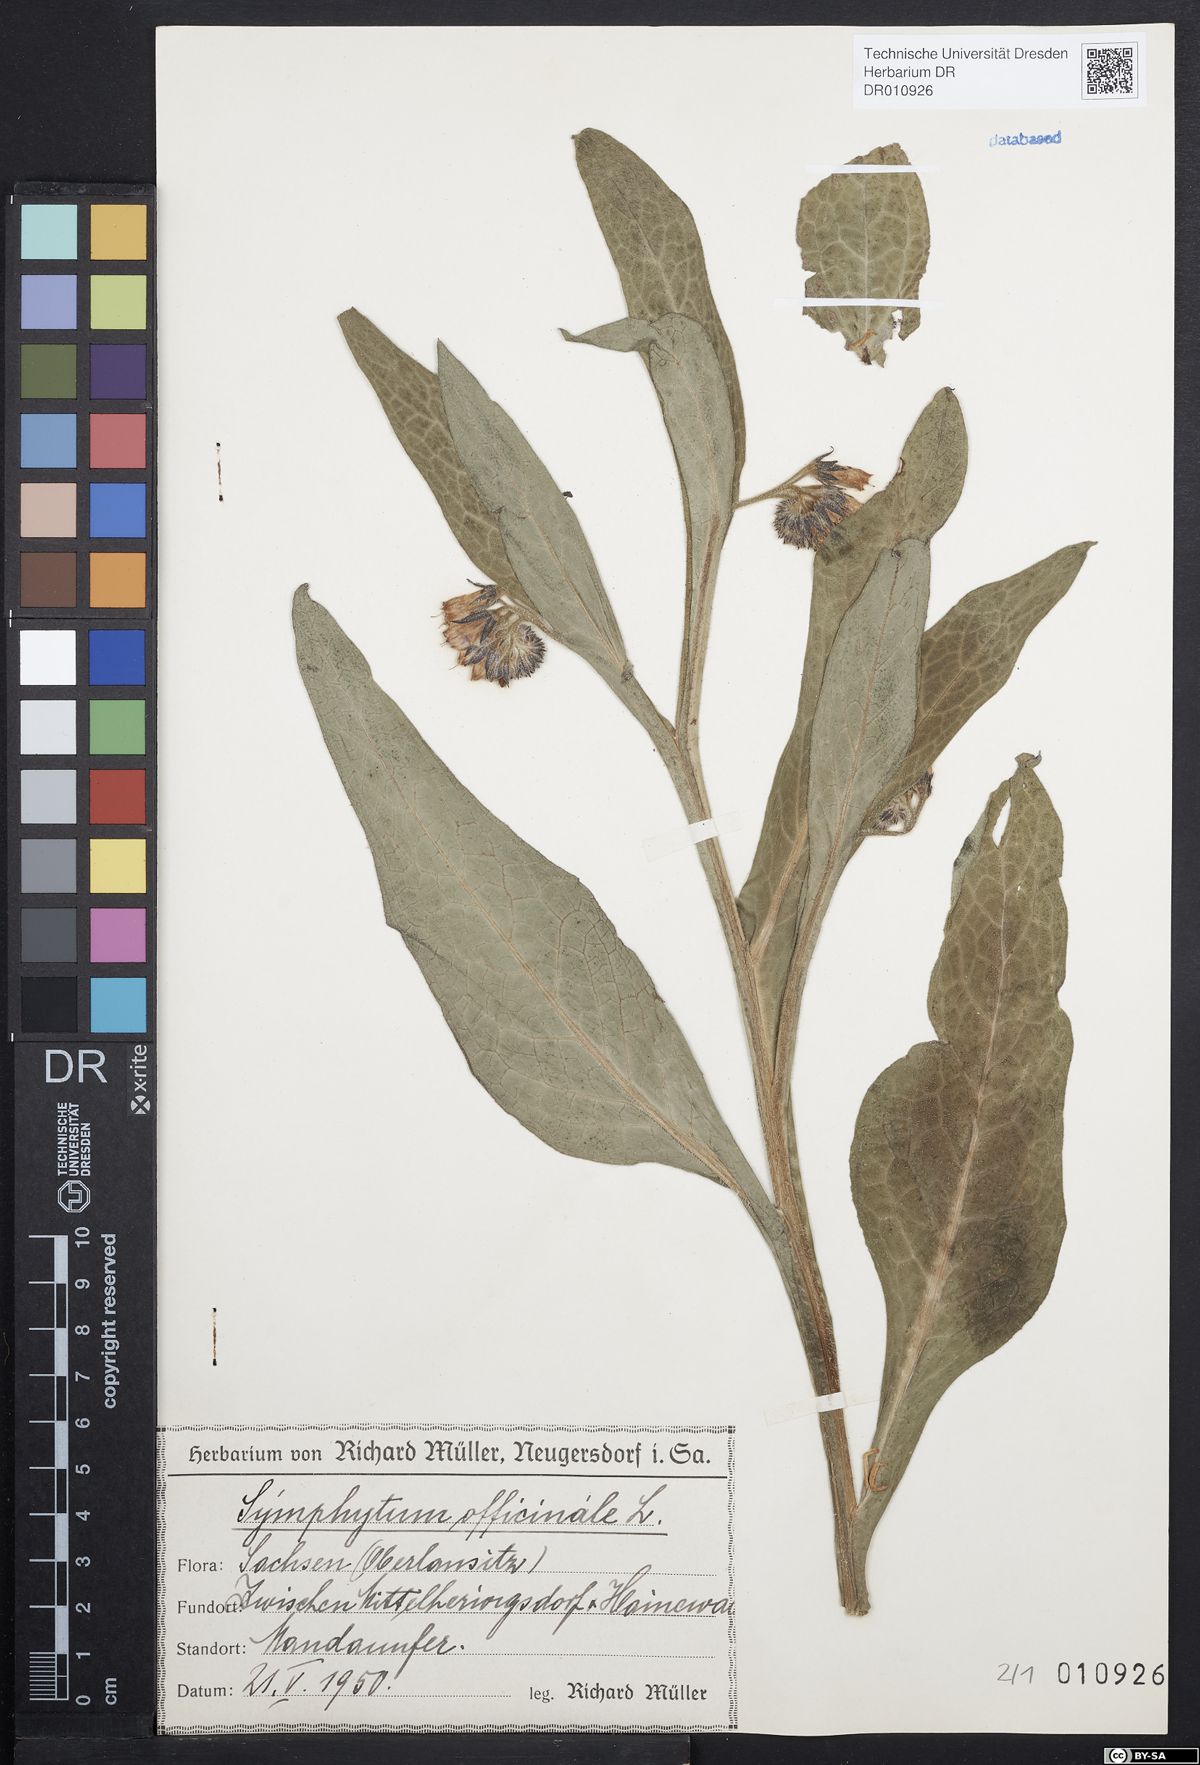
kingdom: Plantae
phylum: Tracheophyta
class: Magnoliopsida
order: Boraginales
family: Boraginaceae
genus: Symphytum
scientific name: Symphytum officinale
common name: Common comfrey
